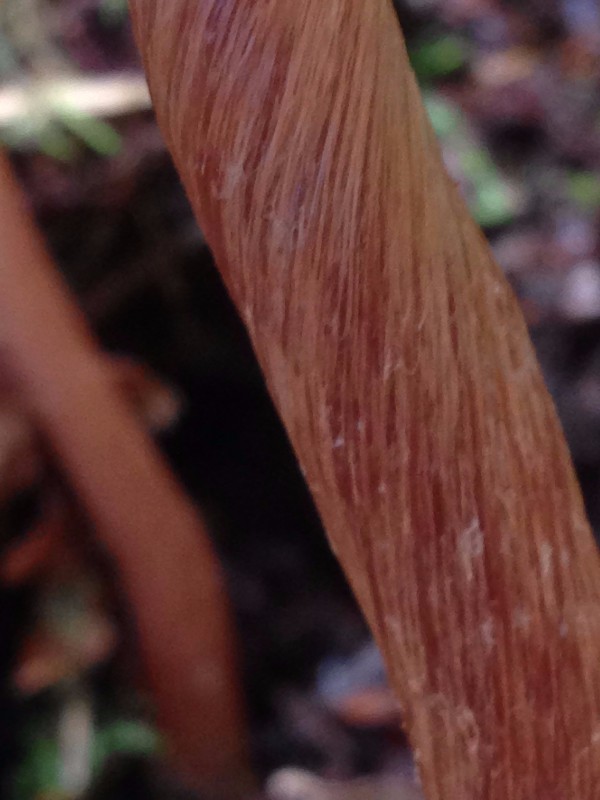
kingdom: Fungi
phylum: Basidiomycota
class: Agaricomycetes
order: Agaricales
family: Hydnangiaceae
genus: Laccaria
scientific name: Laccaria proxima
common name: stor ametysthat
